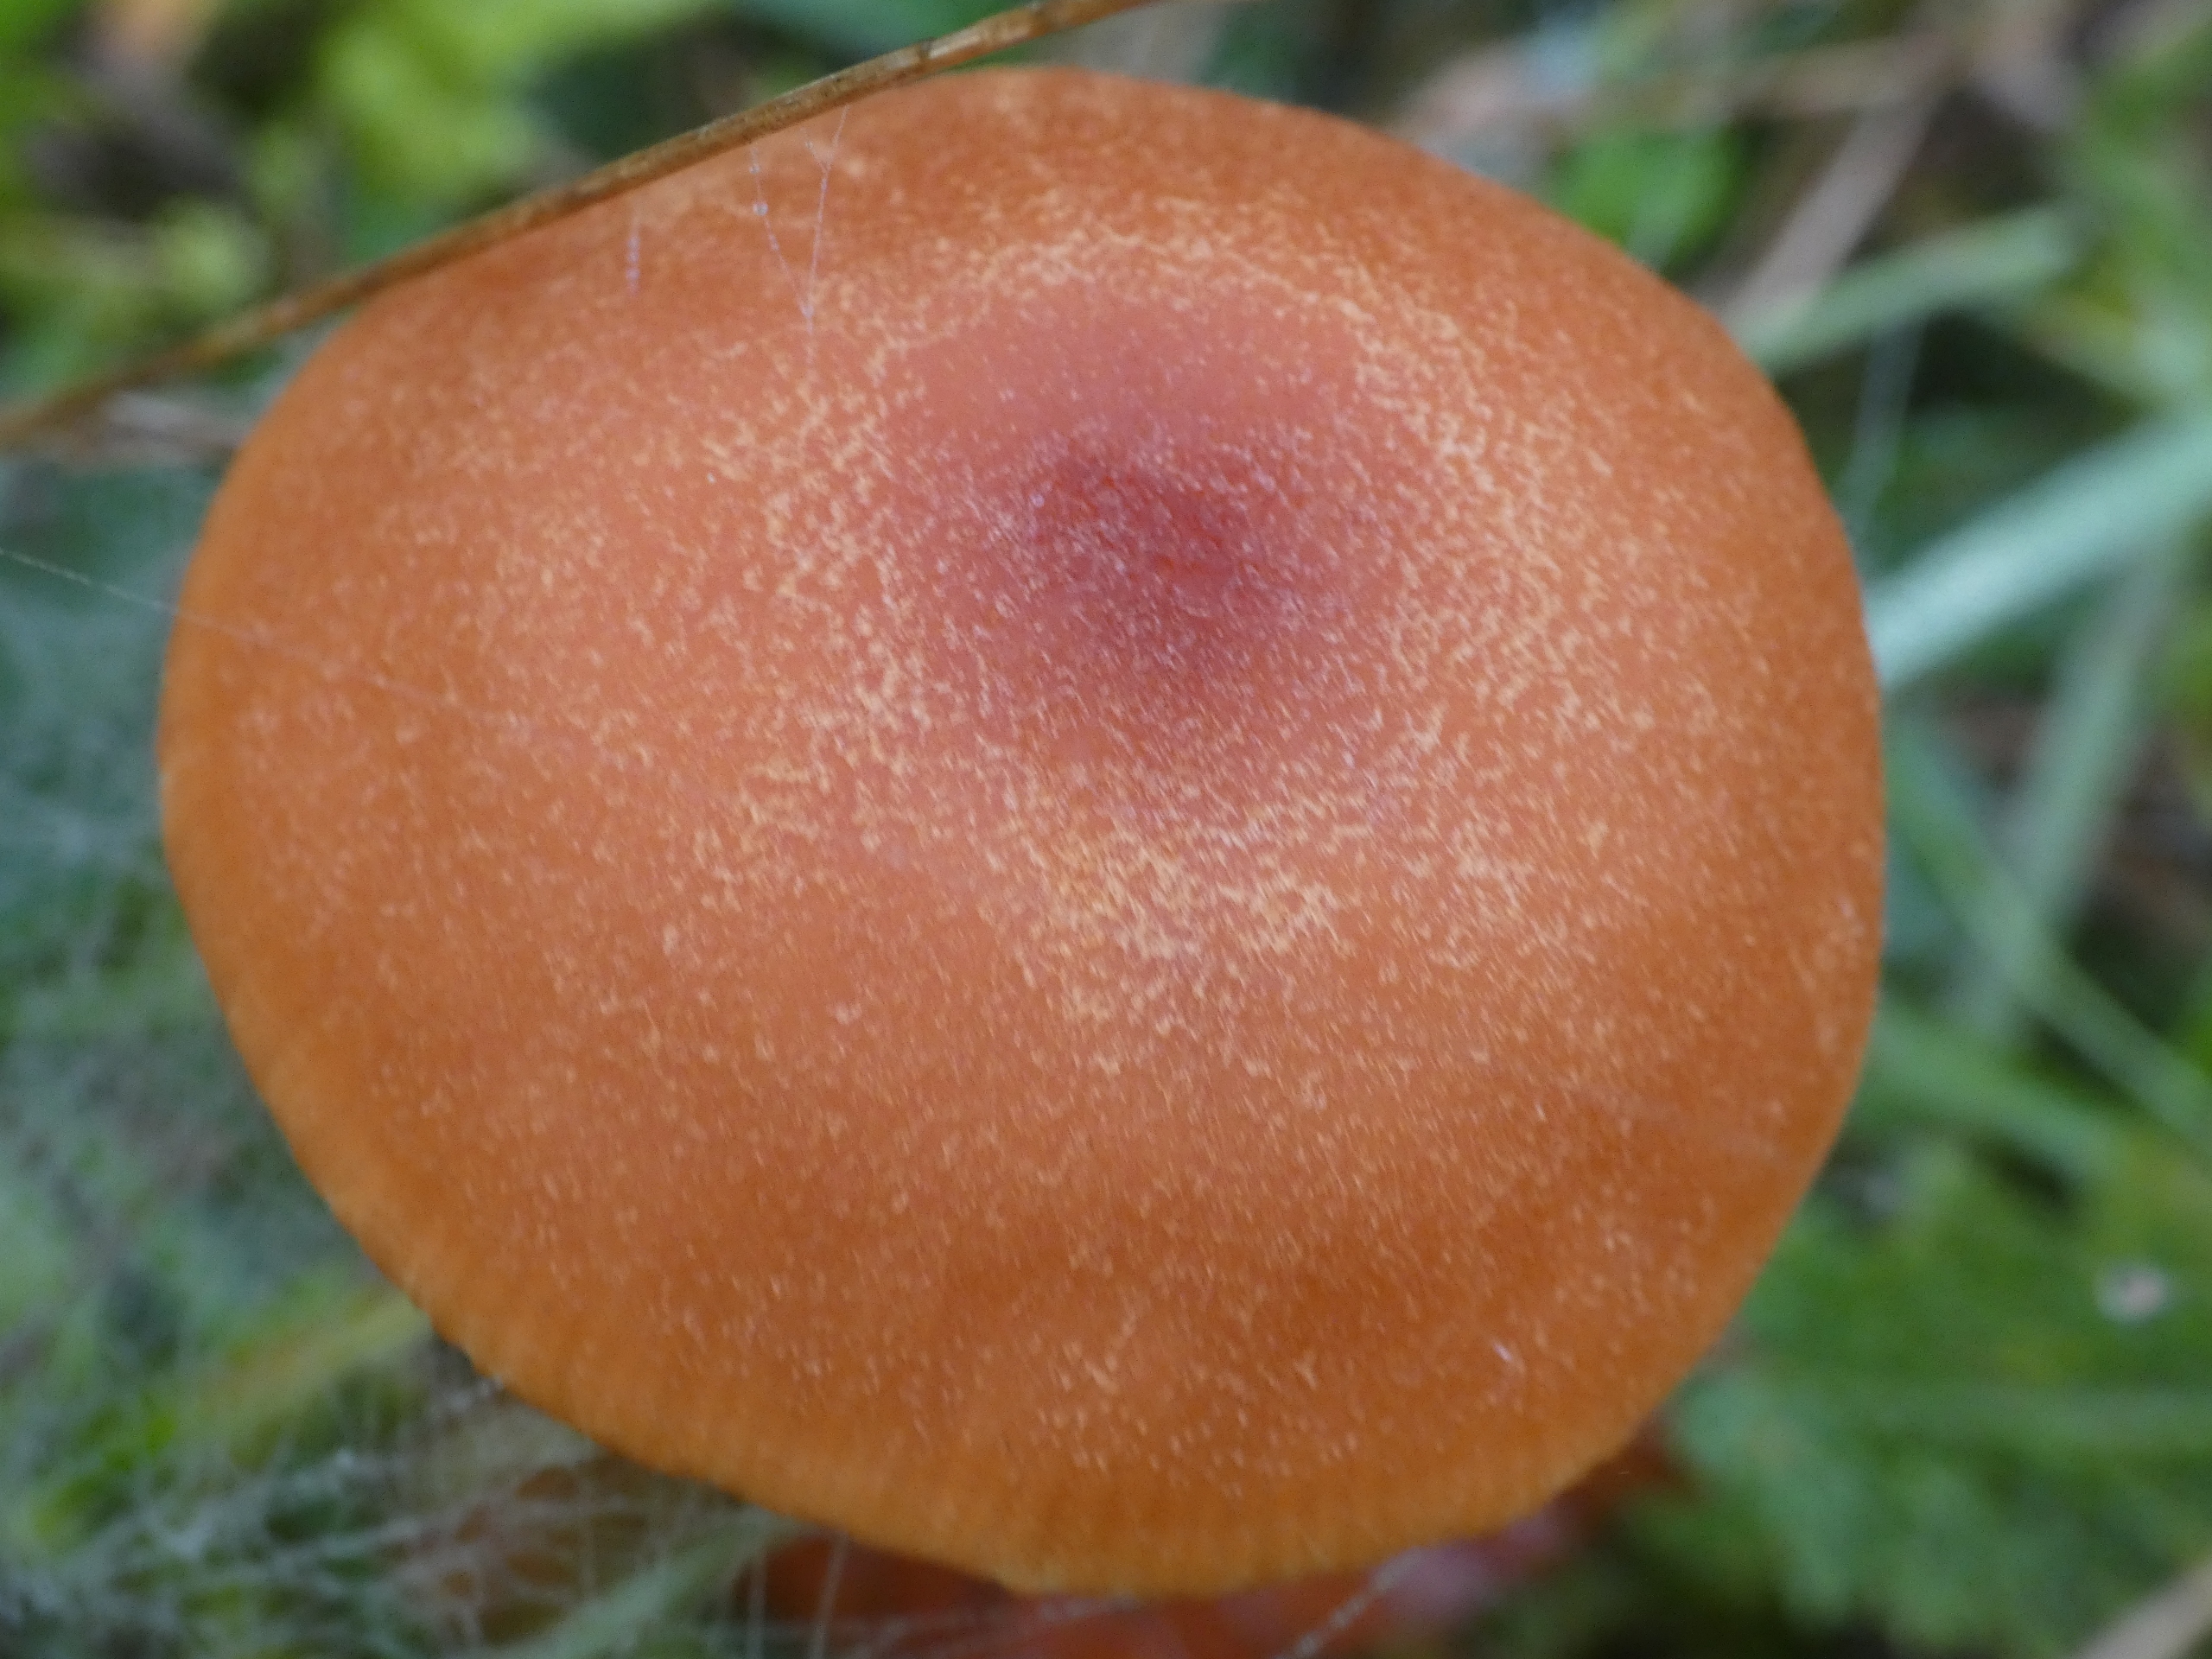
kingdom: Fungi
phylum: Basidiomycota
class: Agaricomycetes
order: Agaricales
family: Hydnangiaceae
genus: Laccaria
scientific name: Laccaria proxima
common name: Stor ametysthat
